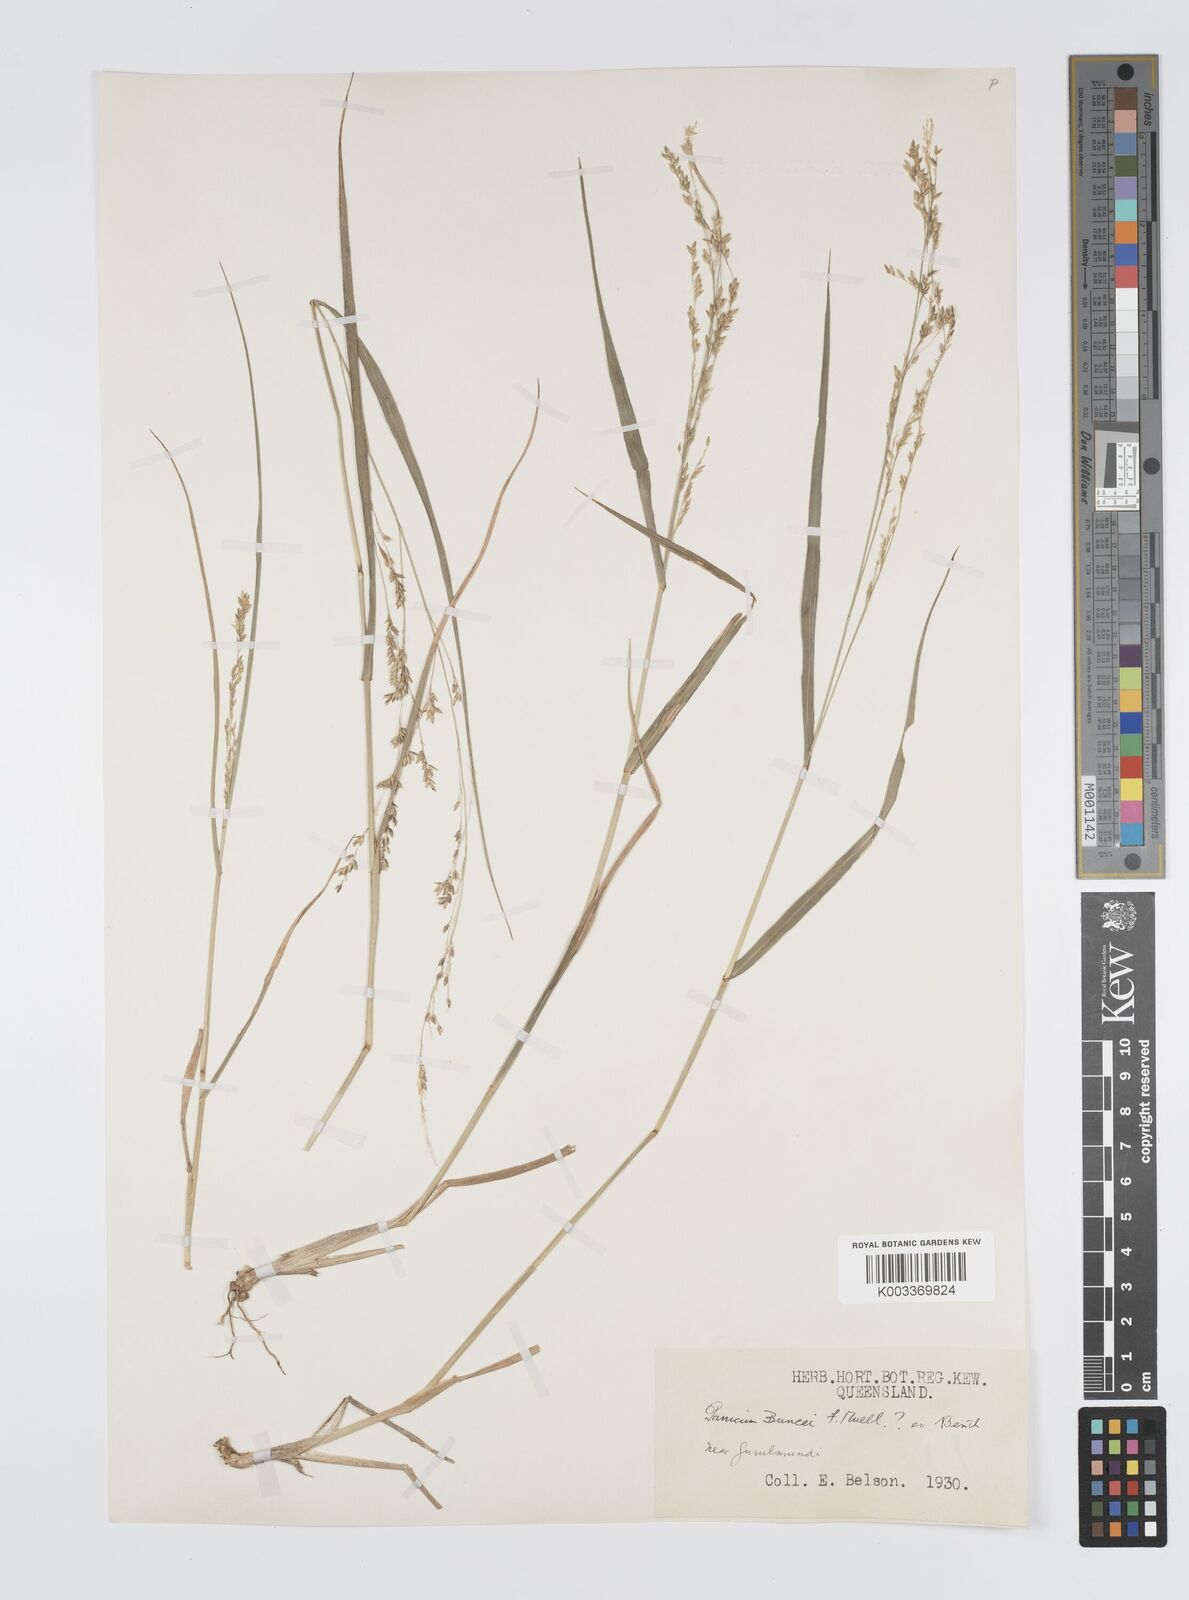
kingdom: Plantae
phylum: Tracheophyta
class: Liliopsida
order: Poales
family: Poaceae
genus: Panicum
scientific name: Panicum buncei
